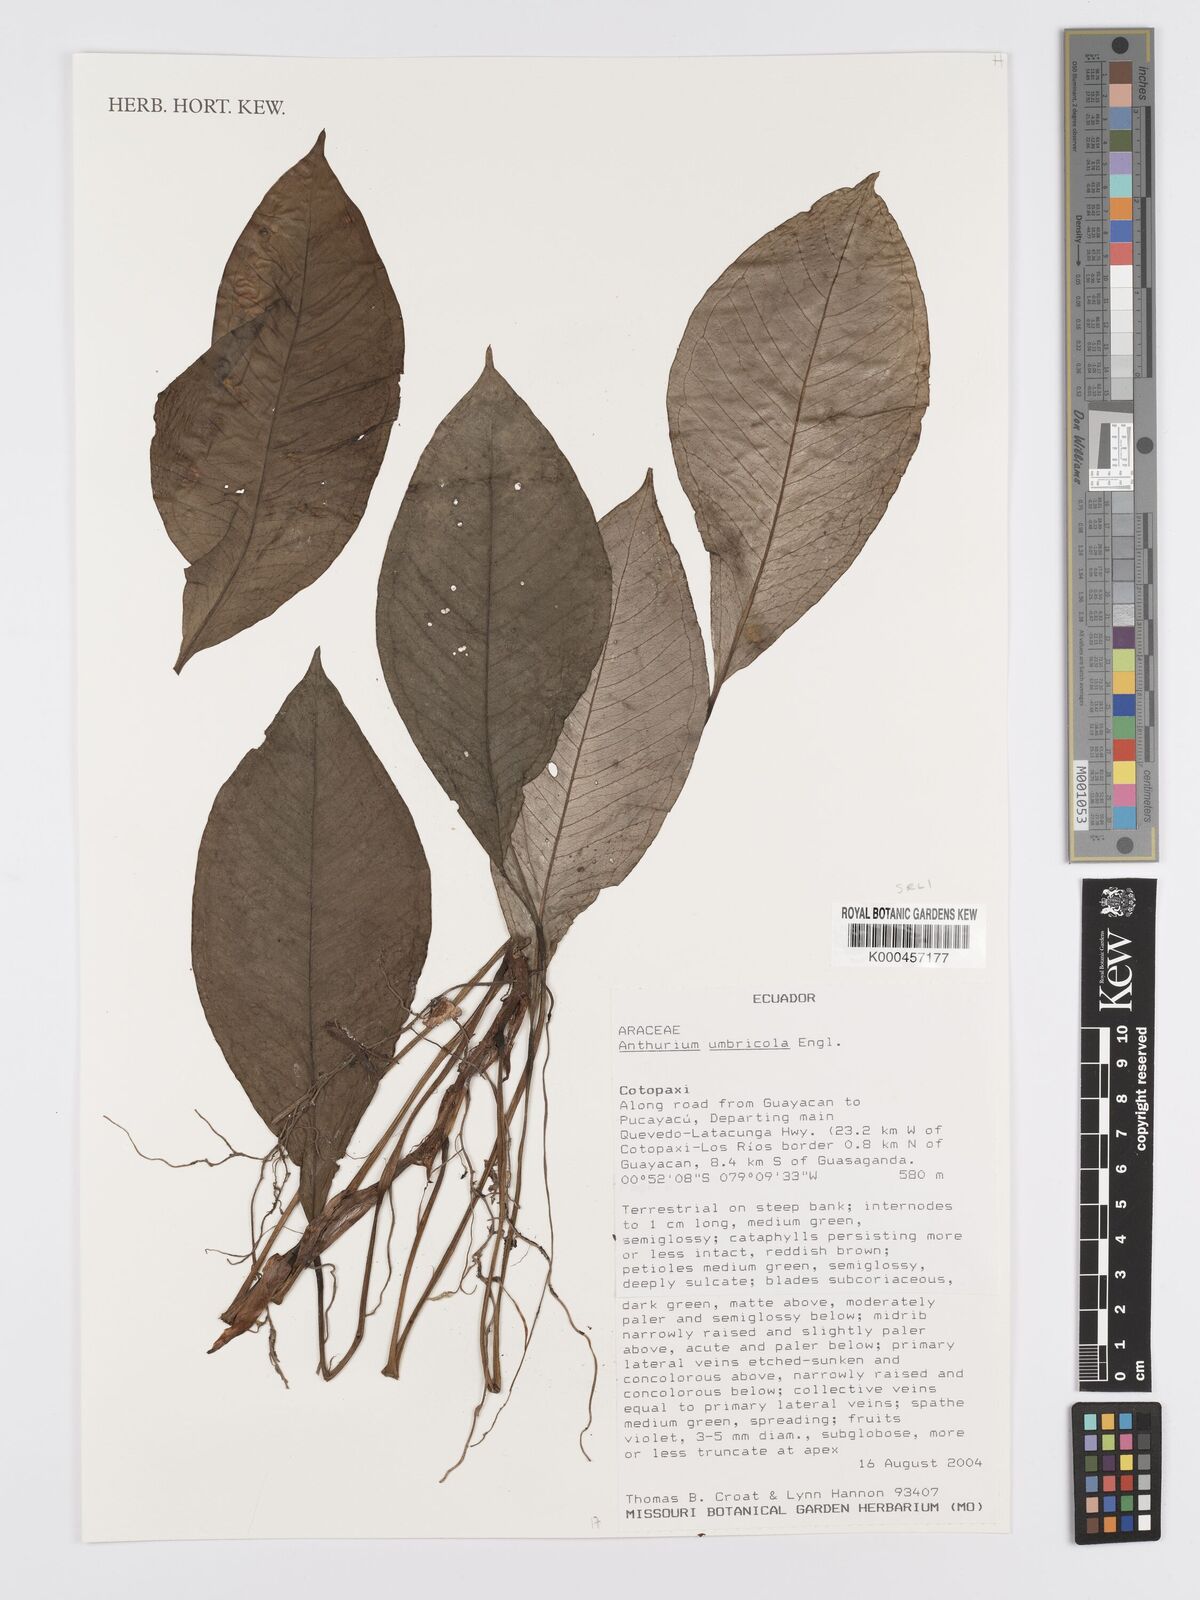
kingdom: Plantae
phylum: Tracheophyta
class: Liliopsida
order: Alismatales
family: Araceae
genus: Anthurium
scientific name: Anthurium umbricola
